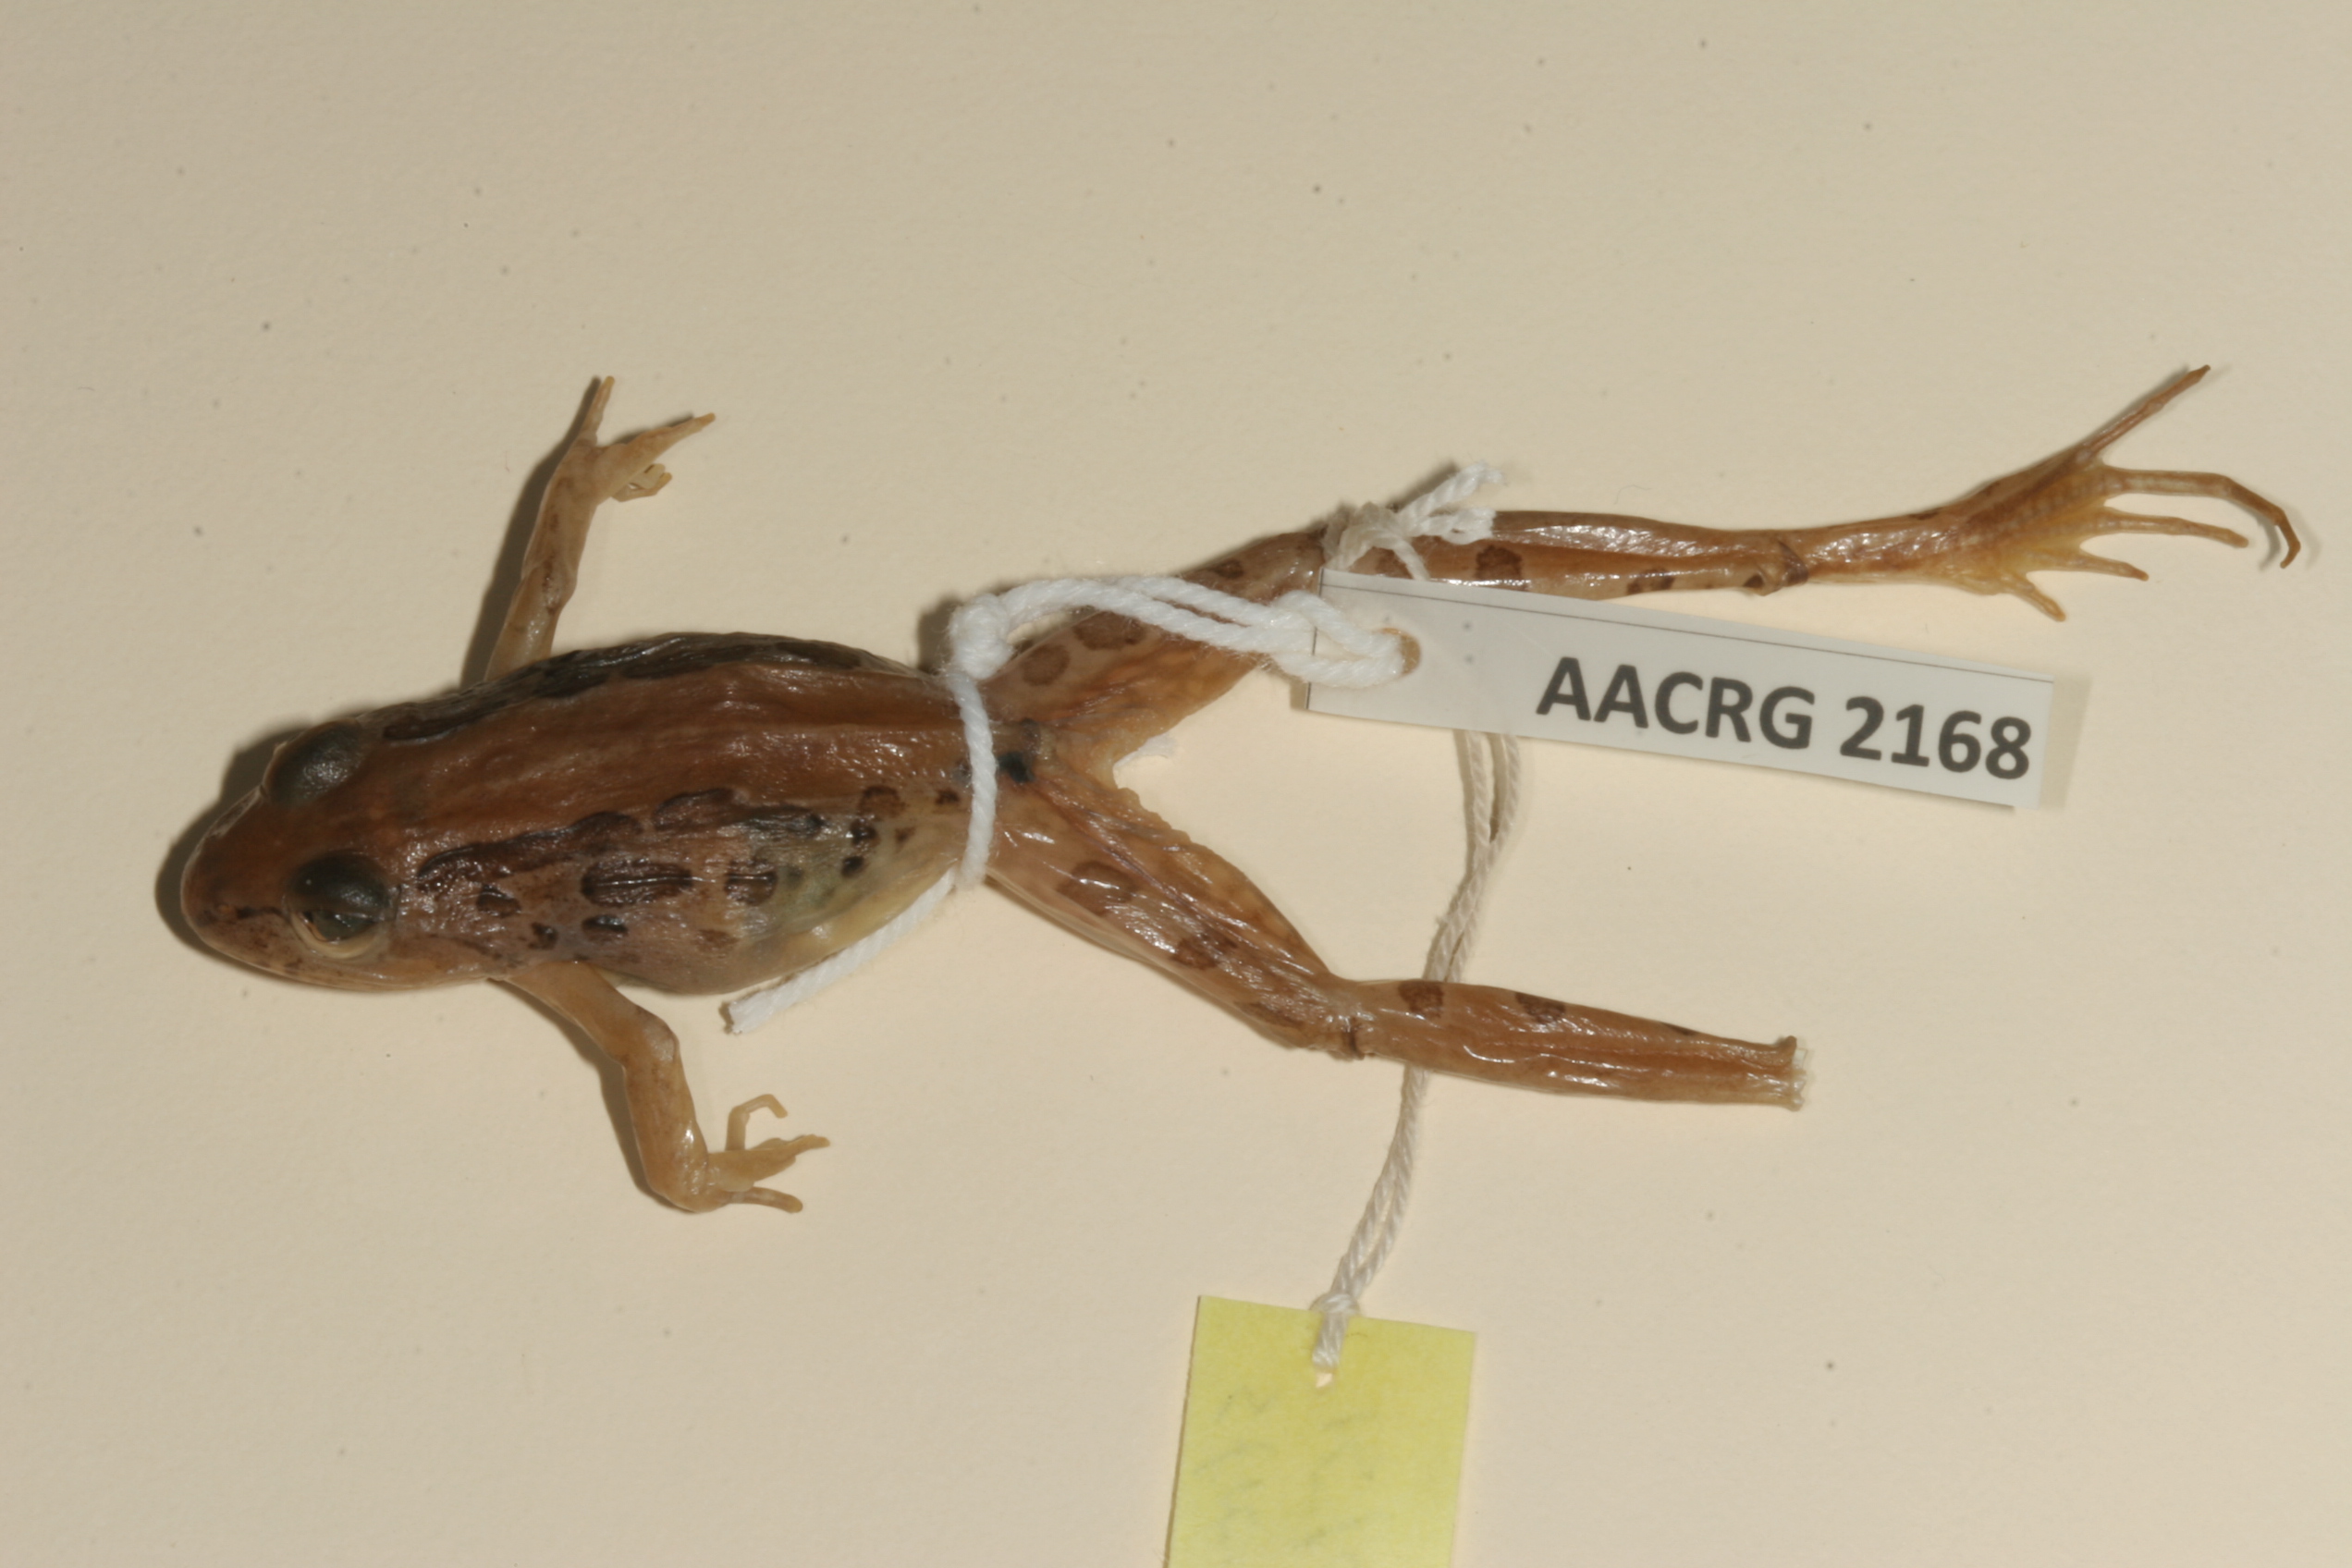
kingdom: Animalia
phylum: Chordata
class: Amphibia
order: Anura
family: Pyxicephalidae
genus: Strongylopus
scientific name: Strongylopus grayii
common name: Gray's stream frog
